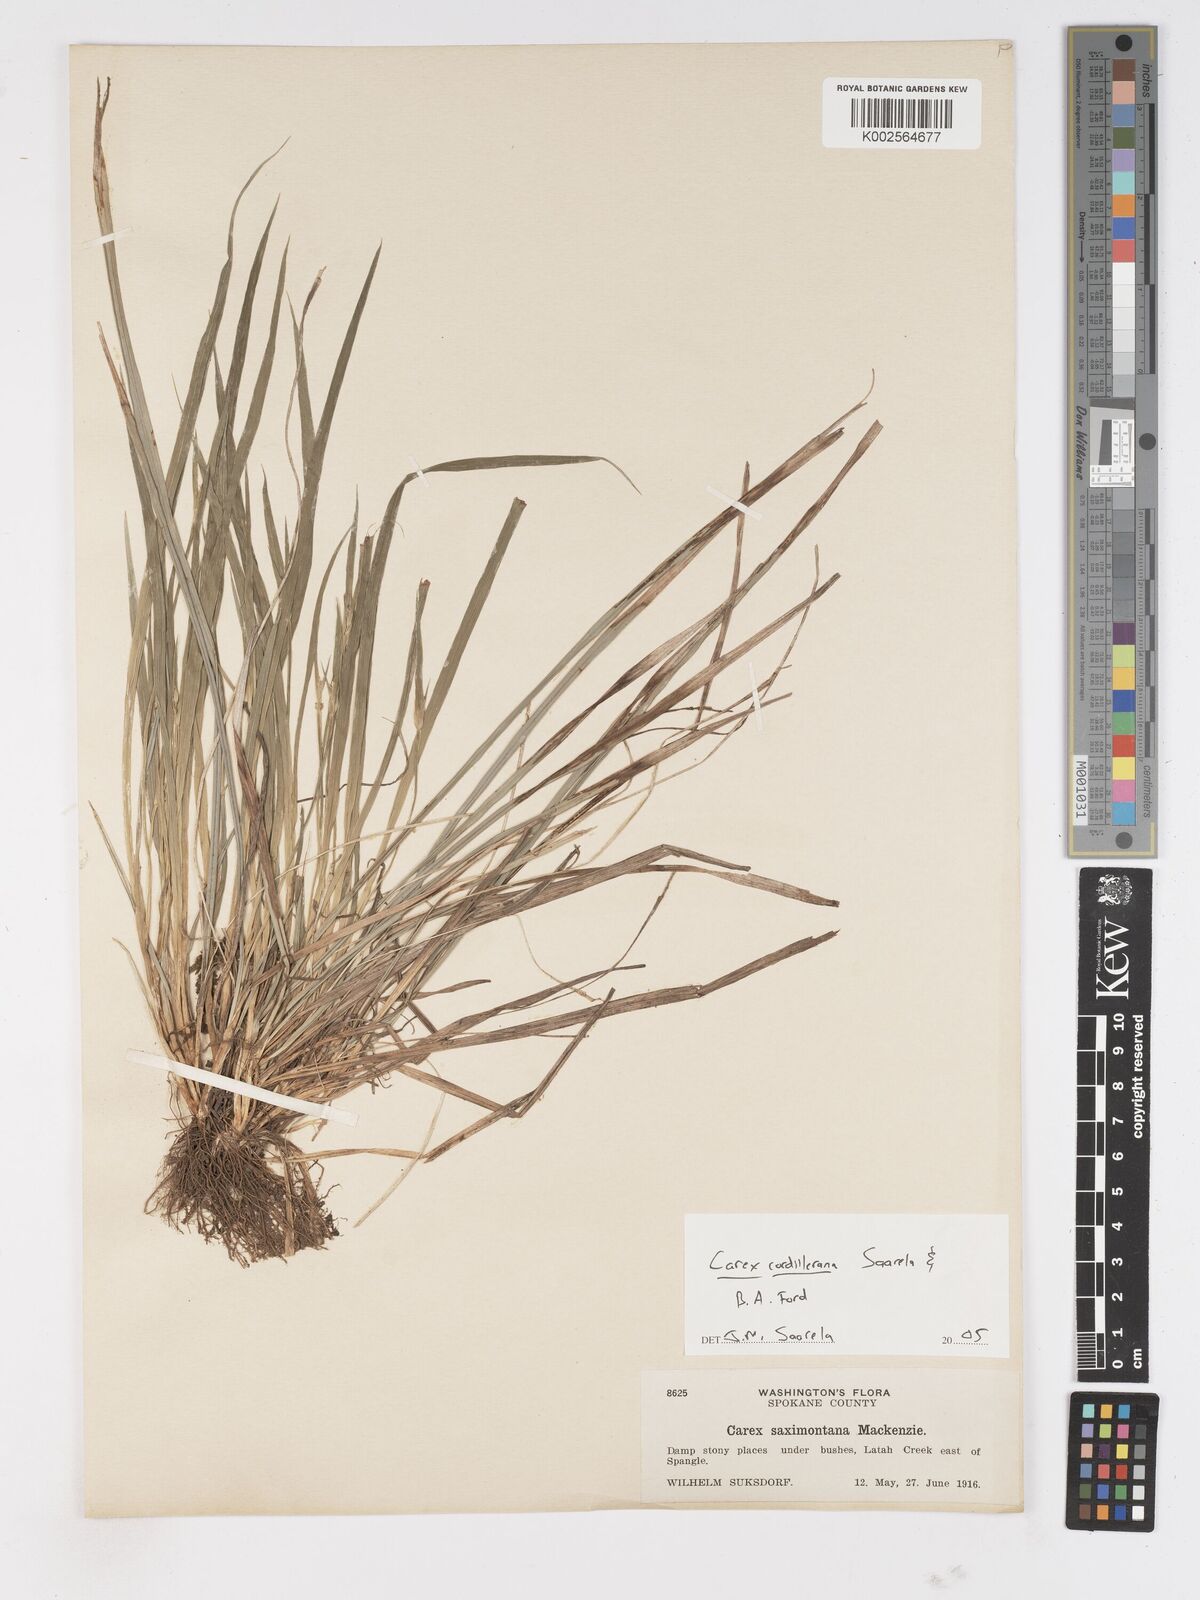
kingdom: Plantae
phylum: Tracheophyta
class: Liliopsida
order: Poales
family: Cyperaceae
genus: Carex
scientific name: Carex cordillerana
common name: Cordilleran sedge
